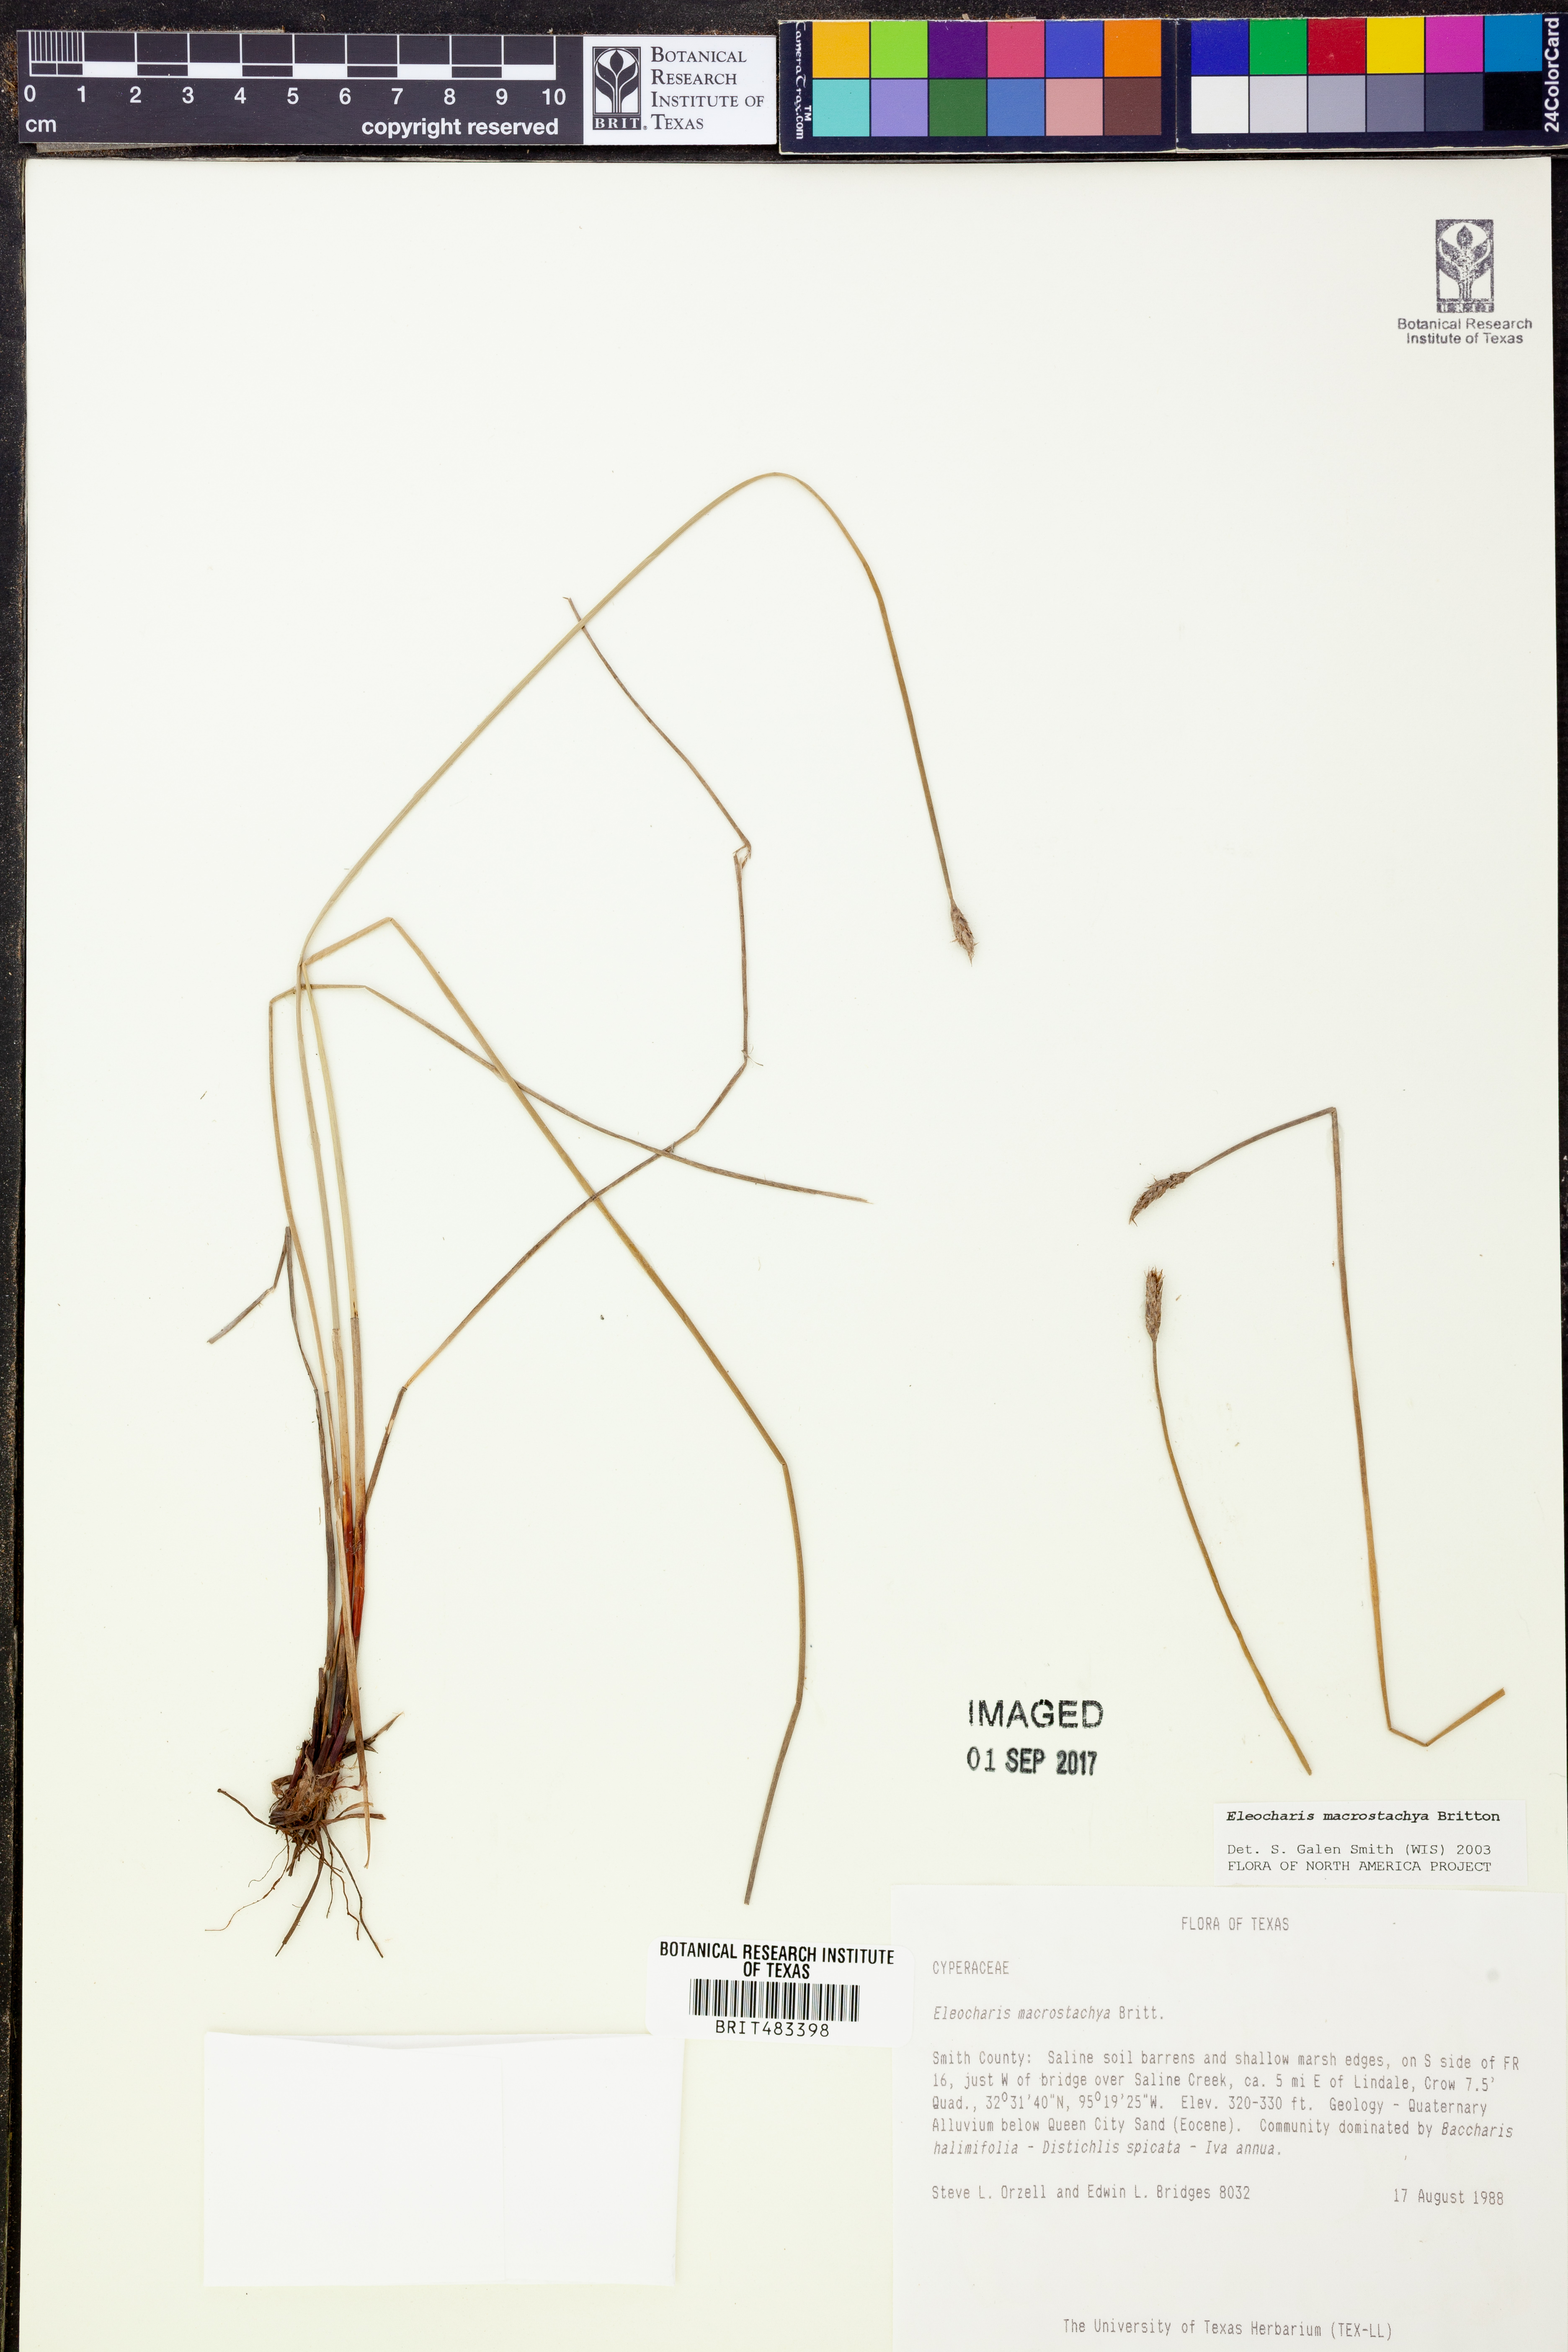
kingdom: Plantae
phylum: Tracheophyta
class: Liliopsida
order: Poales
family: Cyperaceae
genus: Eleocharis
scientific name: Eleocharis macrostachya
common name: Pale spikerush
